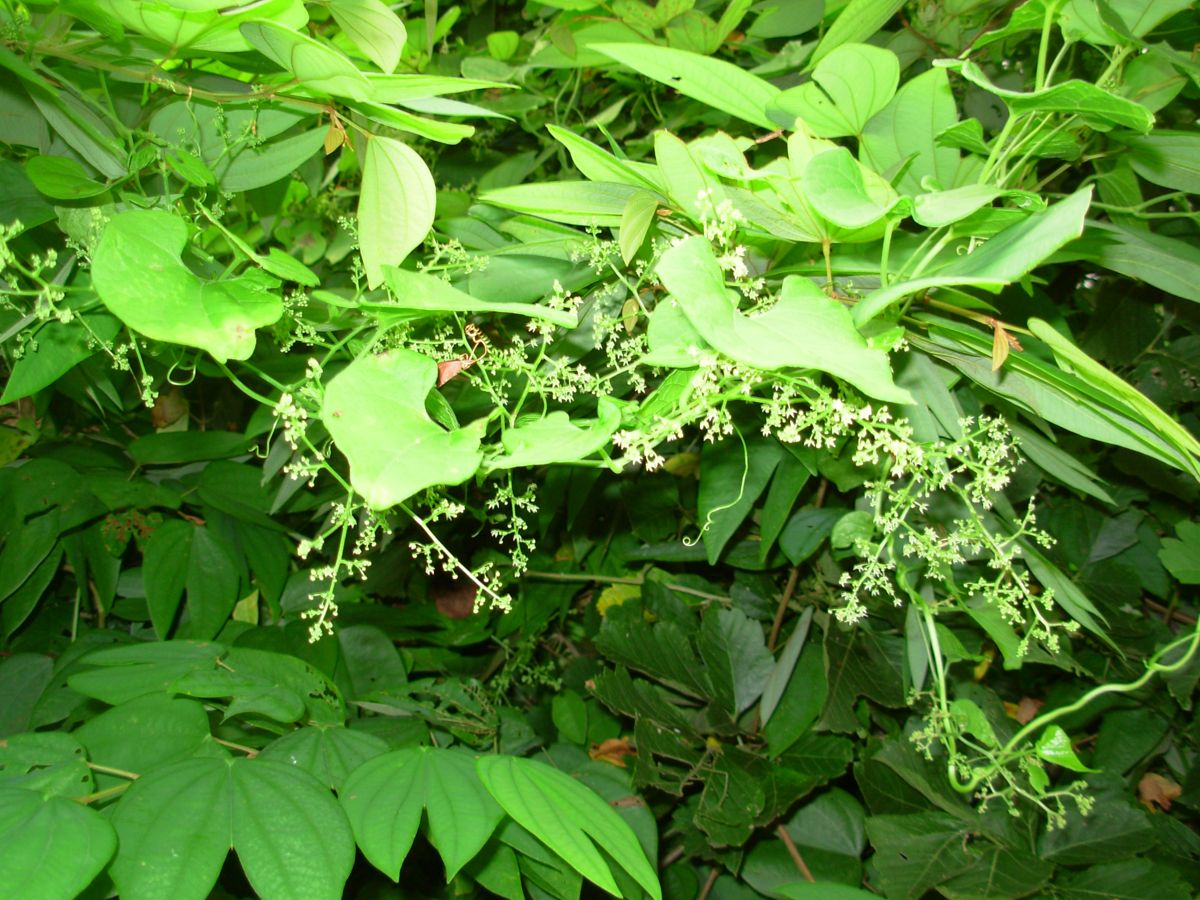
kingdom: Plantae
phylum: Tracheophyta
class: Magnoliopsida
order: Cucurbitales
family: Cucurbitaceae
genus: Sicydium
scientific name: Sicydium tamnifolium
